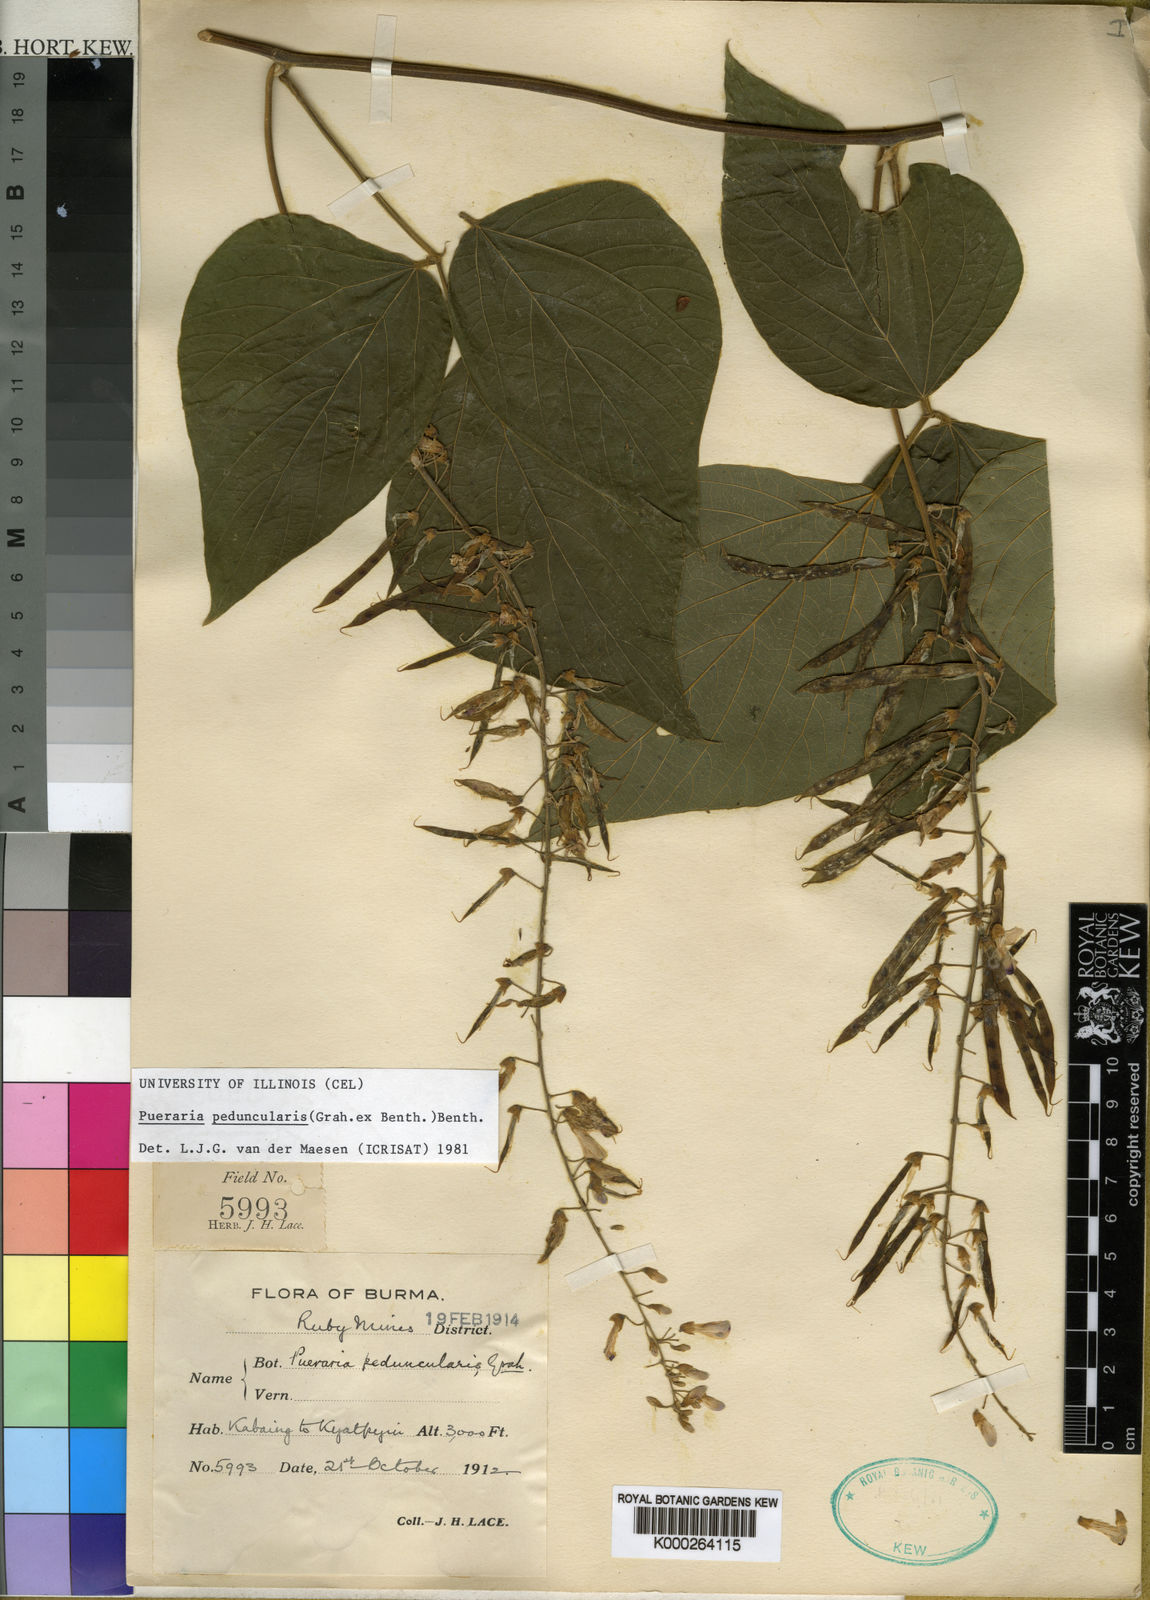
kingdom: Plantae
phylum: Tracheophyta
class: Magnoliopsida
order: Fabales
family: Fabaceae
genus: Toxicopueraria
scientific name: Toxicopueraria peduncularis
